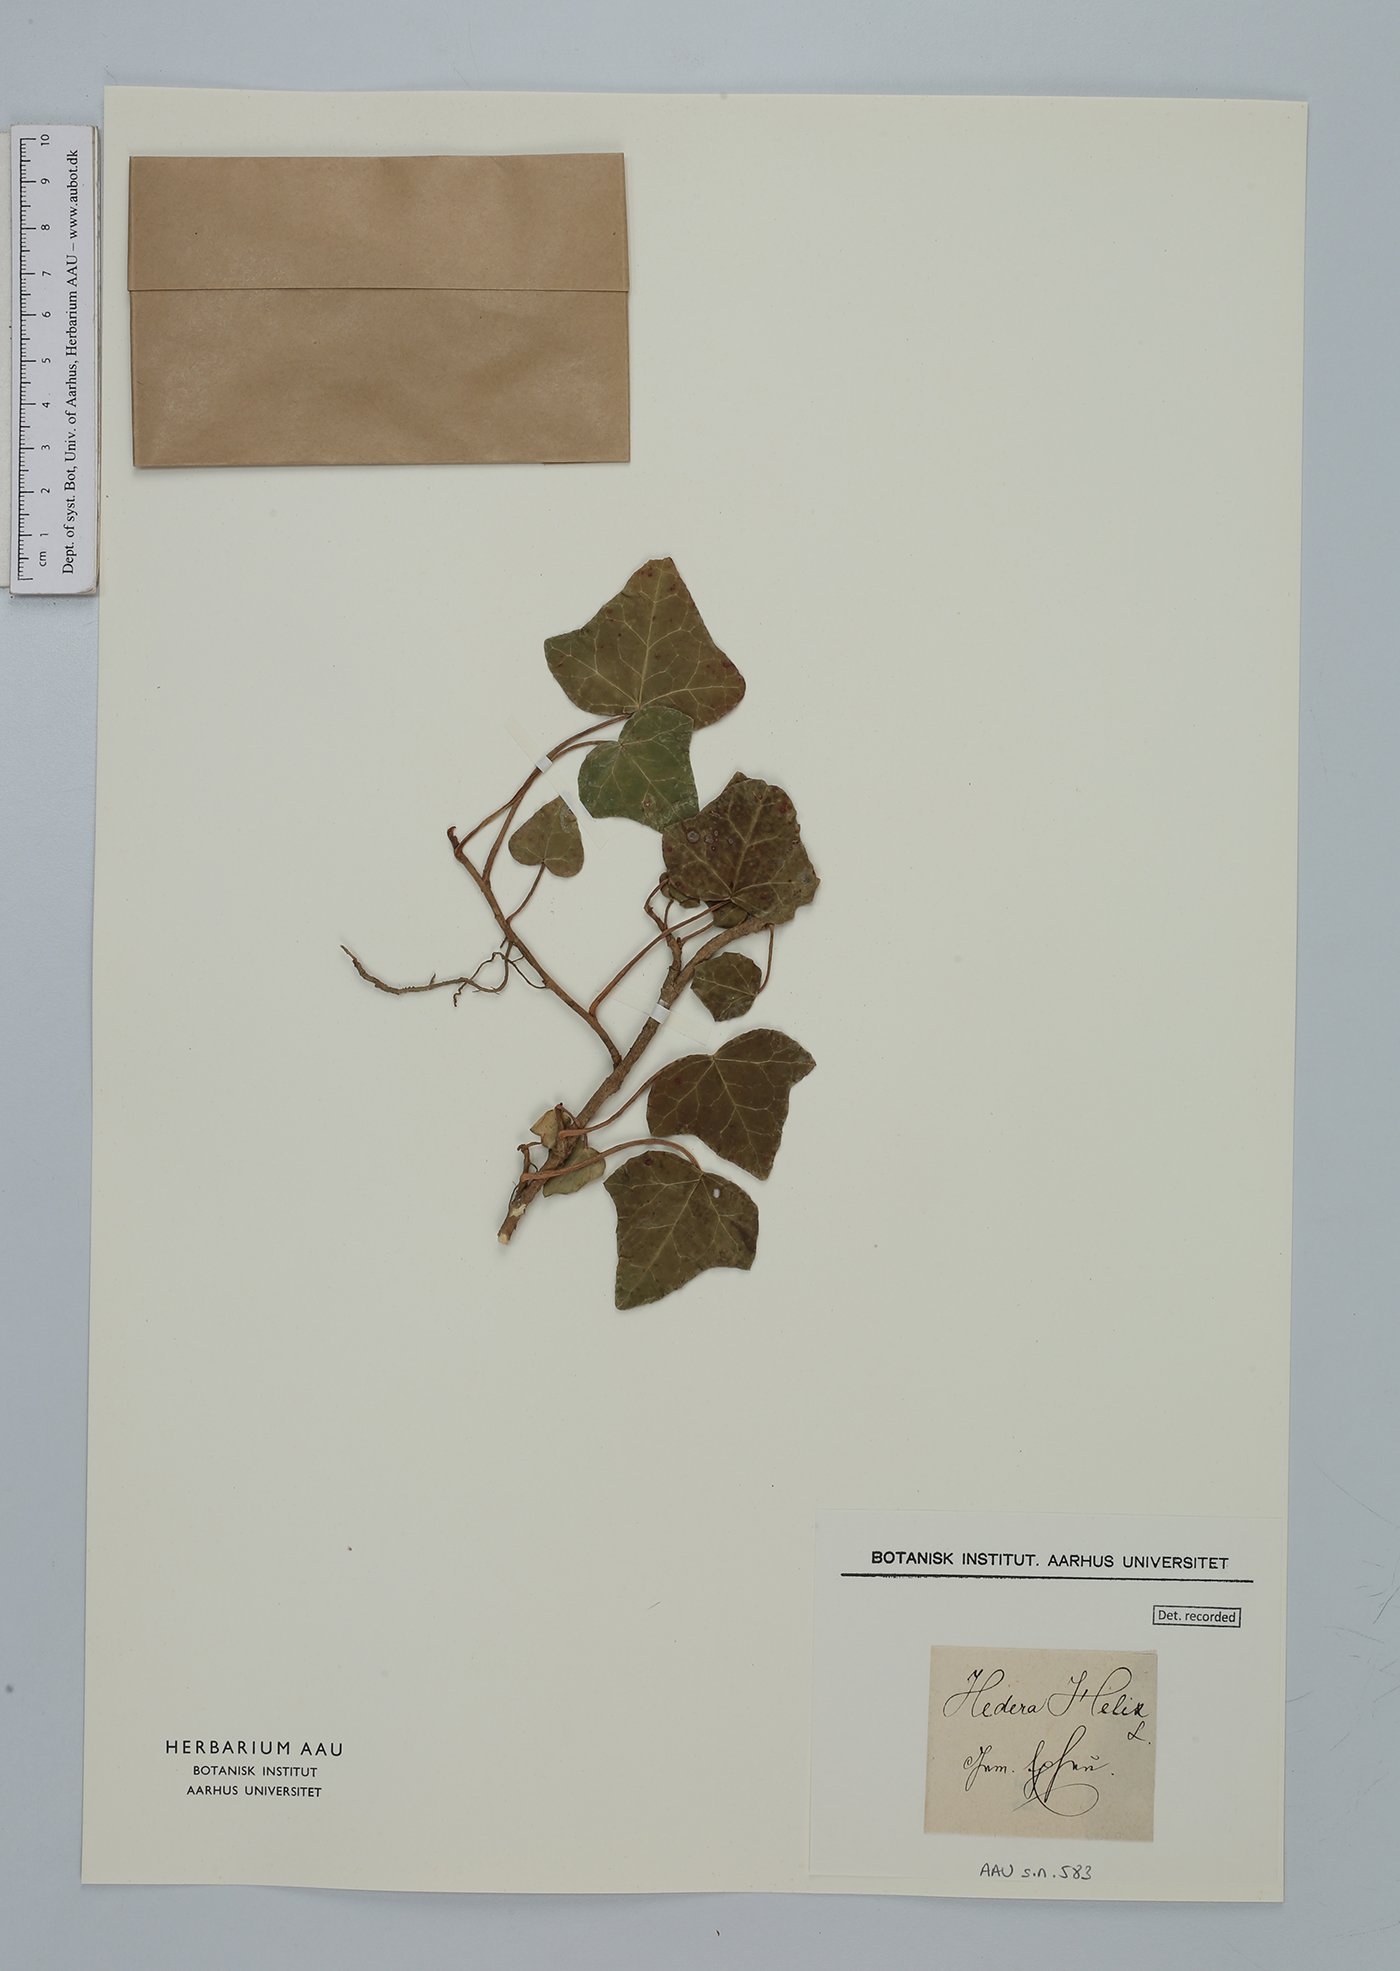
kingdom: Plantae
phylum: Tracheophyta
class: Magnoliopsida
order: Apiales
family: Araliaceae
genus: Hedera
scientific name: Hedera helix
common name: Ivy
